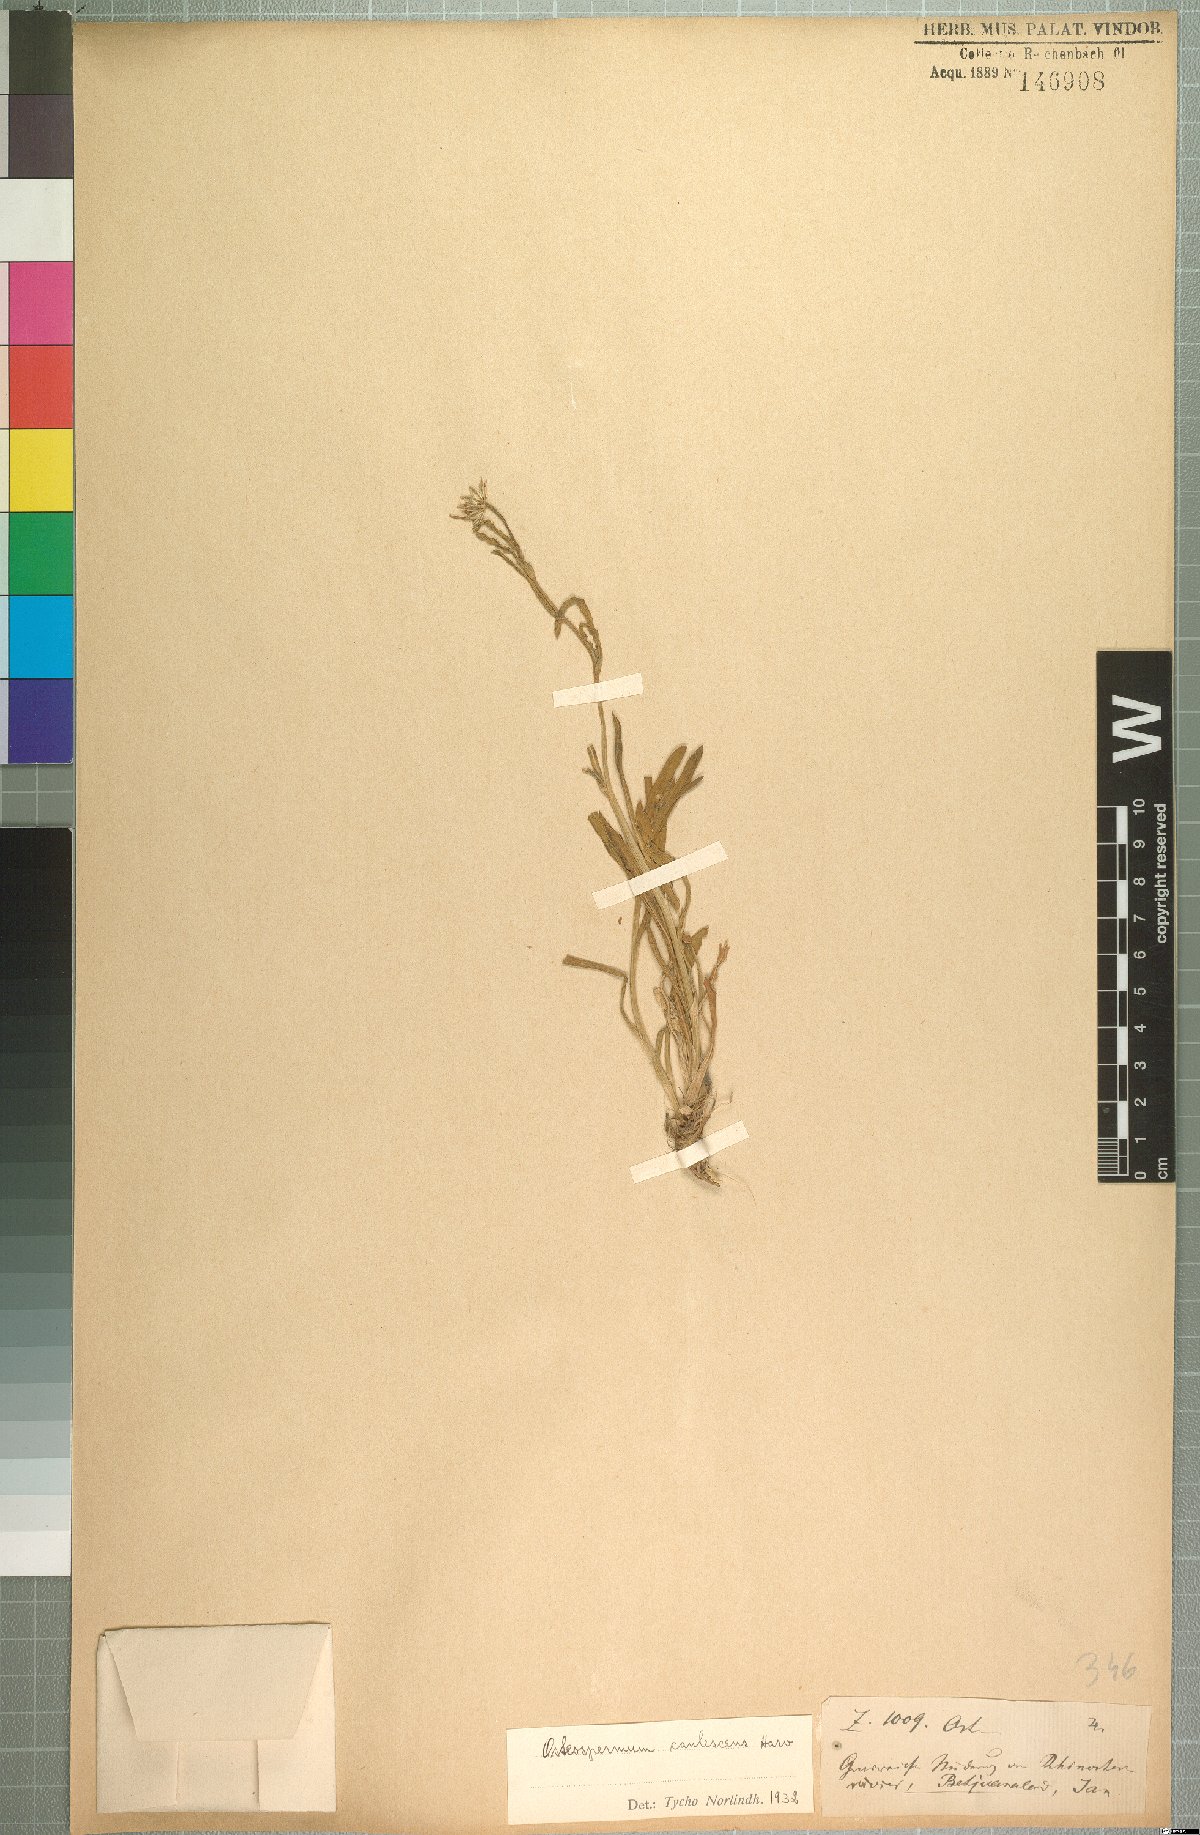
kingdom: Plantae
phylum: Tracheophyta
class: Magnoliopsida
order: Asterales
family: Asteraceae
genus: Dimorphotheca
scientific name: Dimorphotheca caulescens
